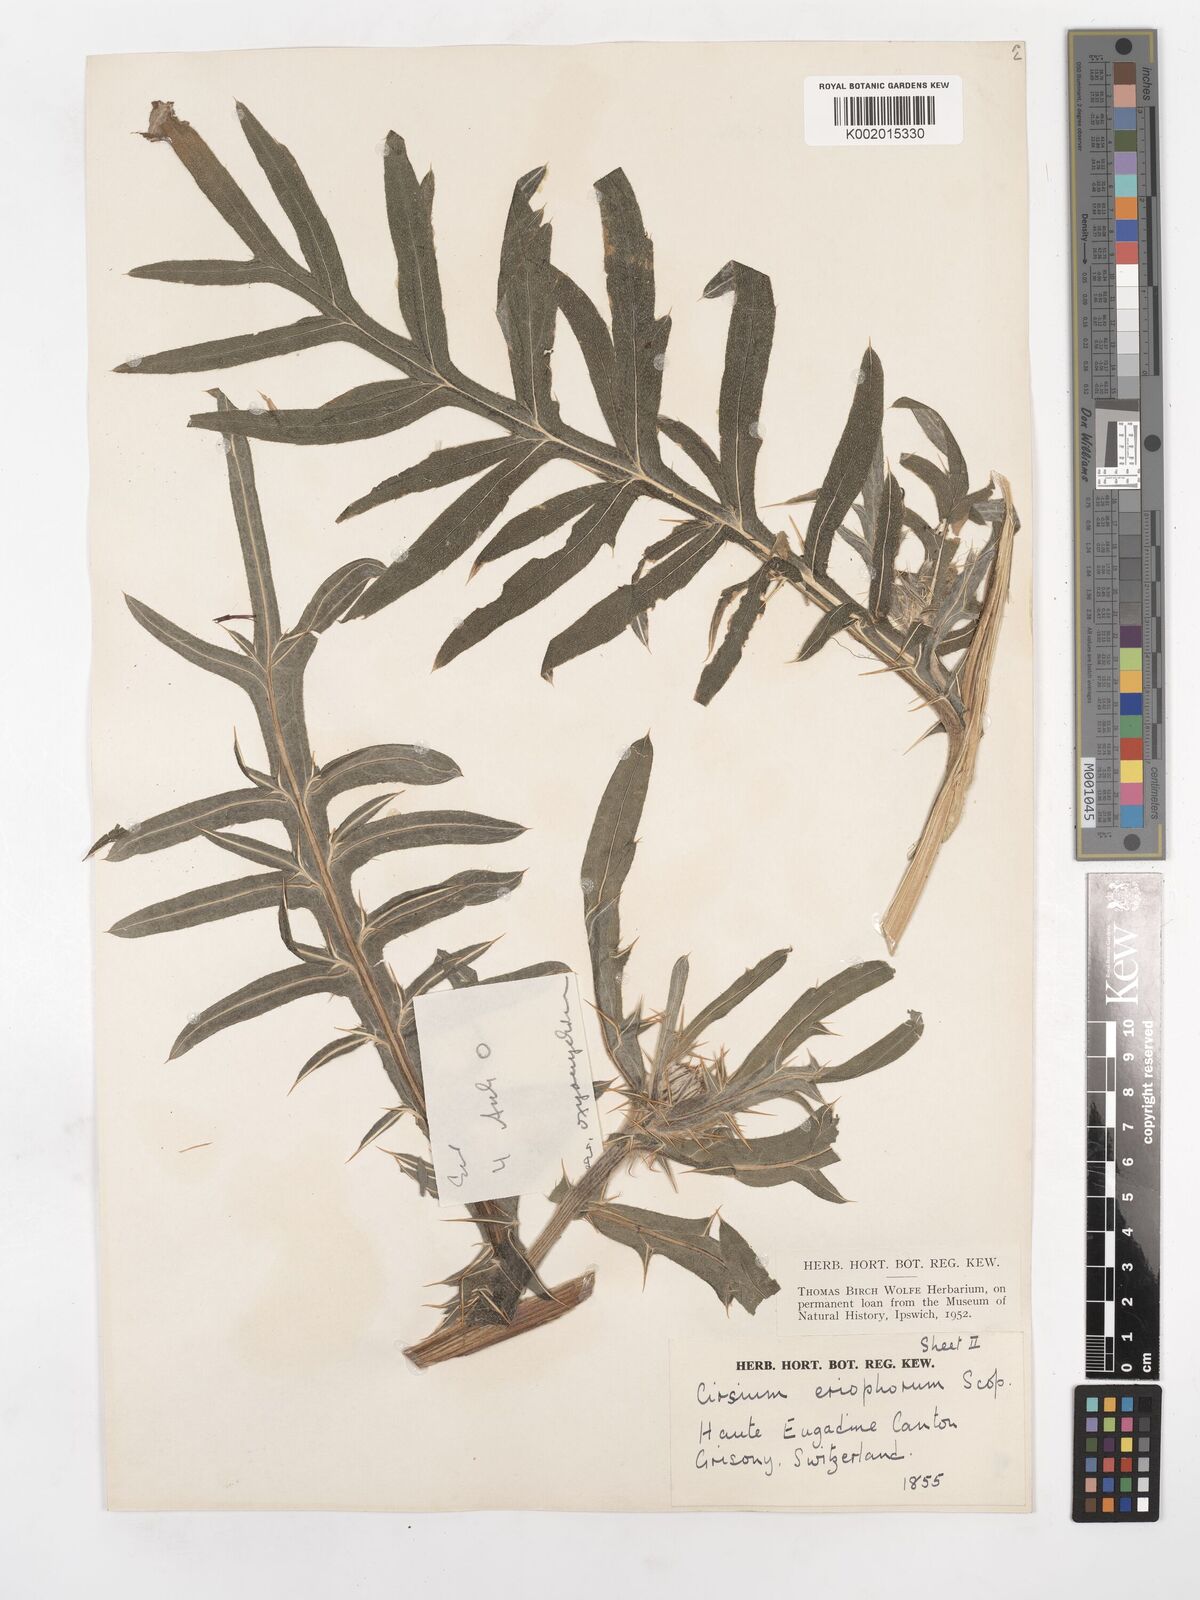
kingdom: Plantae
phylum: Tracheophyta
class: Magnoliopsida
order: Asterales
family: Asteraceae
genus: Lophiolepis
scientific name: Lophiolepis eriophora
